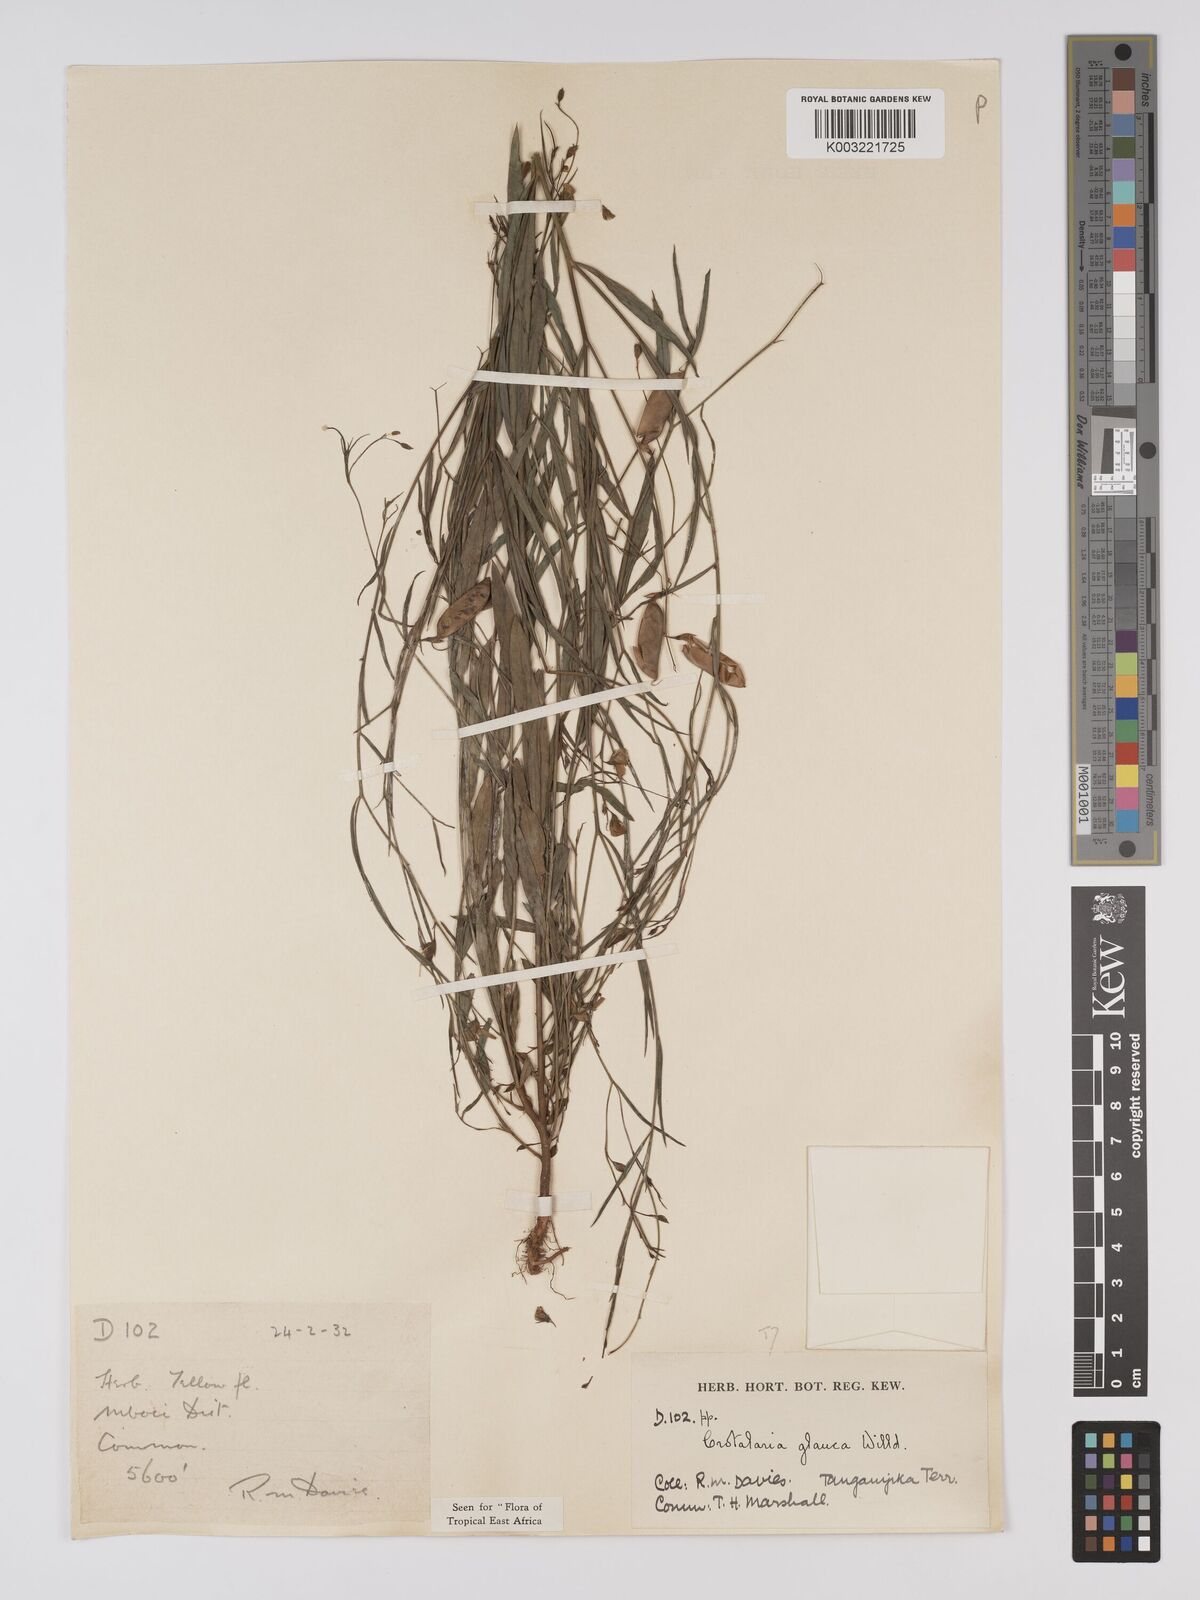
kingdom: Plantae
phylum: Tracheophyta
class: Magnoliopsida
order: Fabales
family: Fabaceae
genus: Crotalaria
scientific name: Crotalaria glauca
